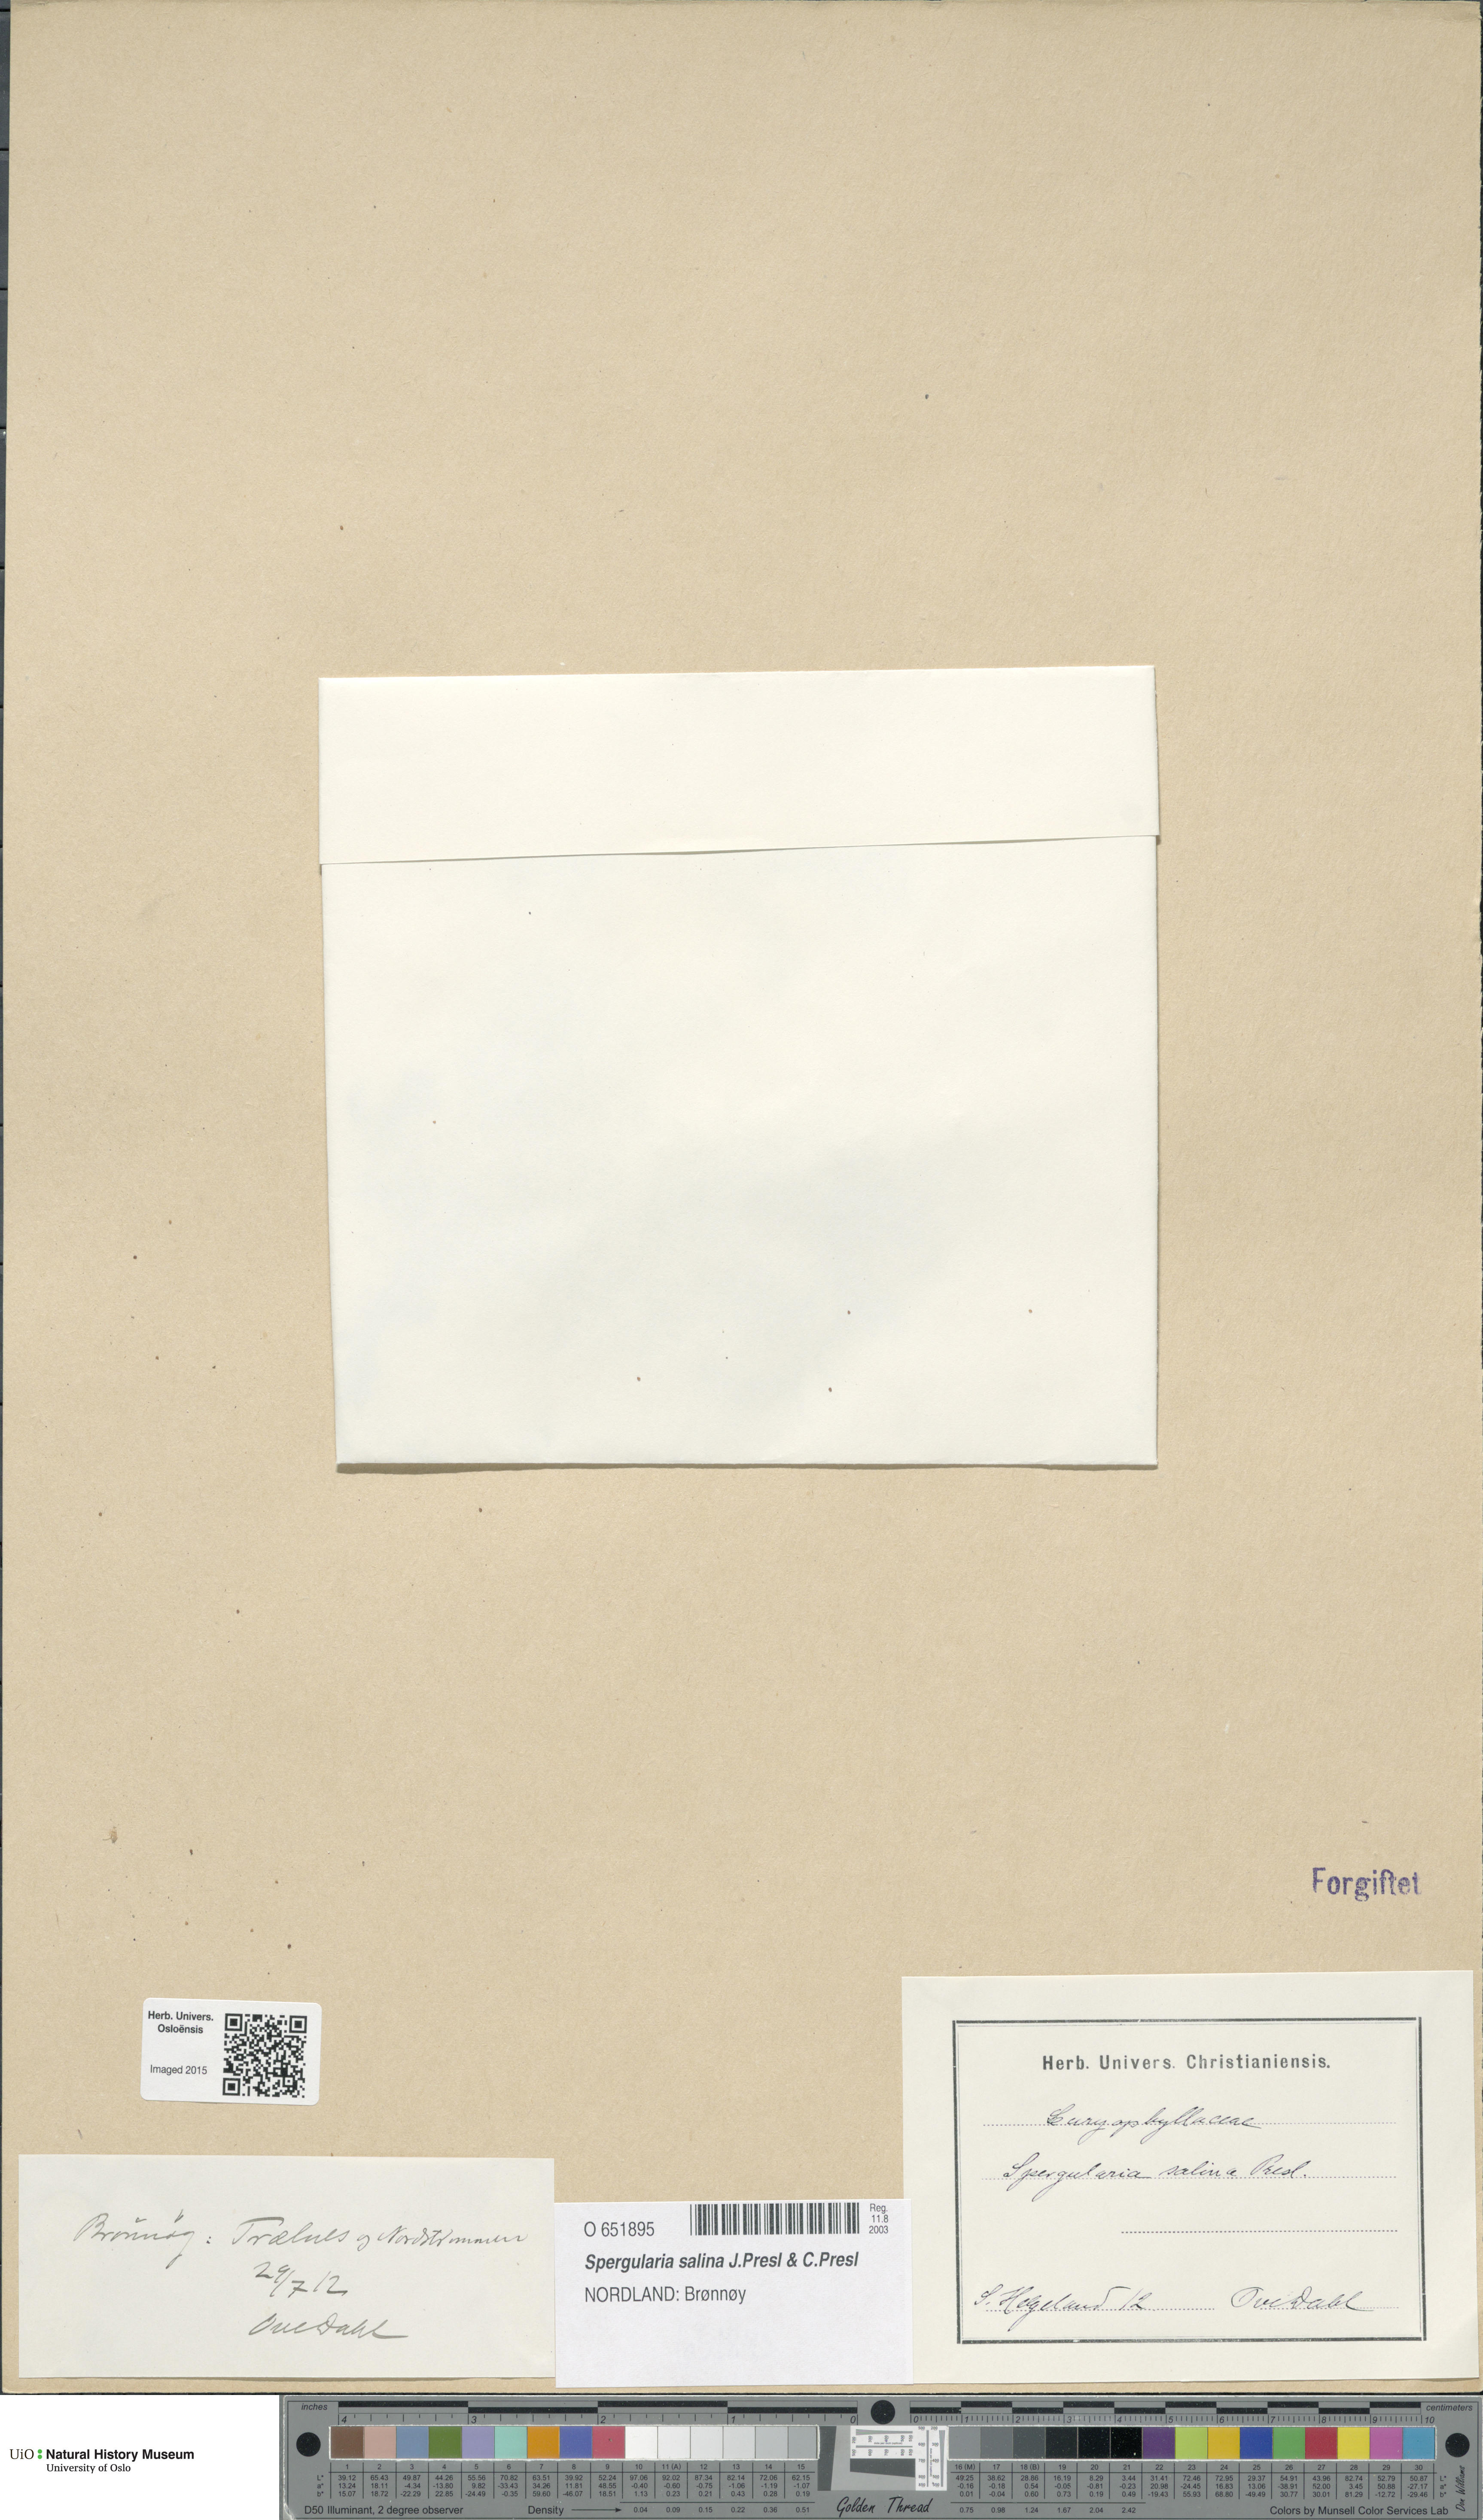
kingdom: Plantae
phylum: Tracheophyta
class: Magnoliopsida
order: Caryophyllales
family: Caryophyllaceae
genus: Spergularia
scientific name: Spergularia marina
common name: Lesser sea-spurrey
